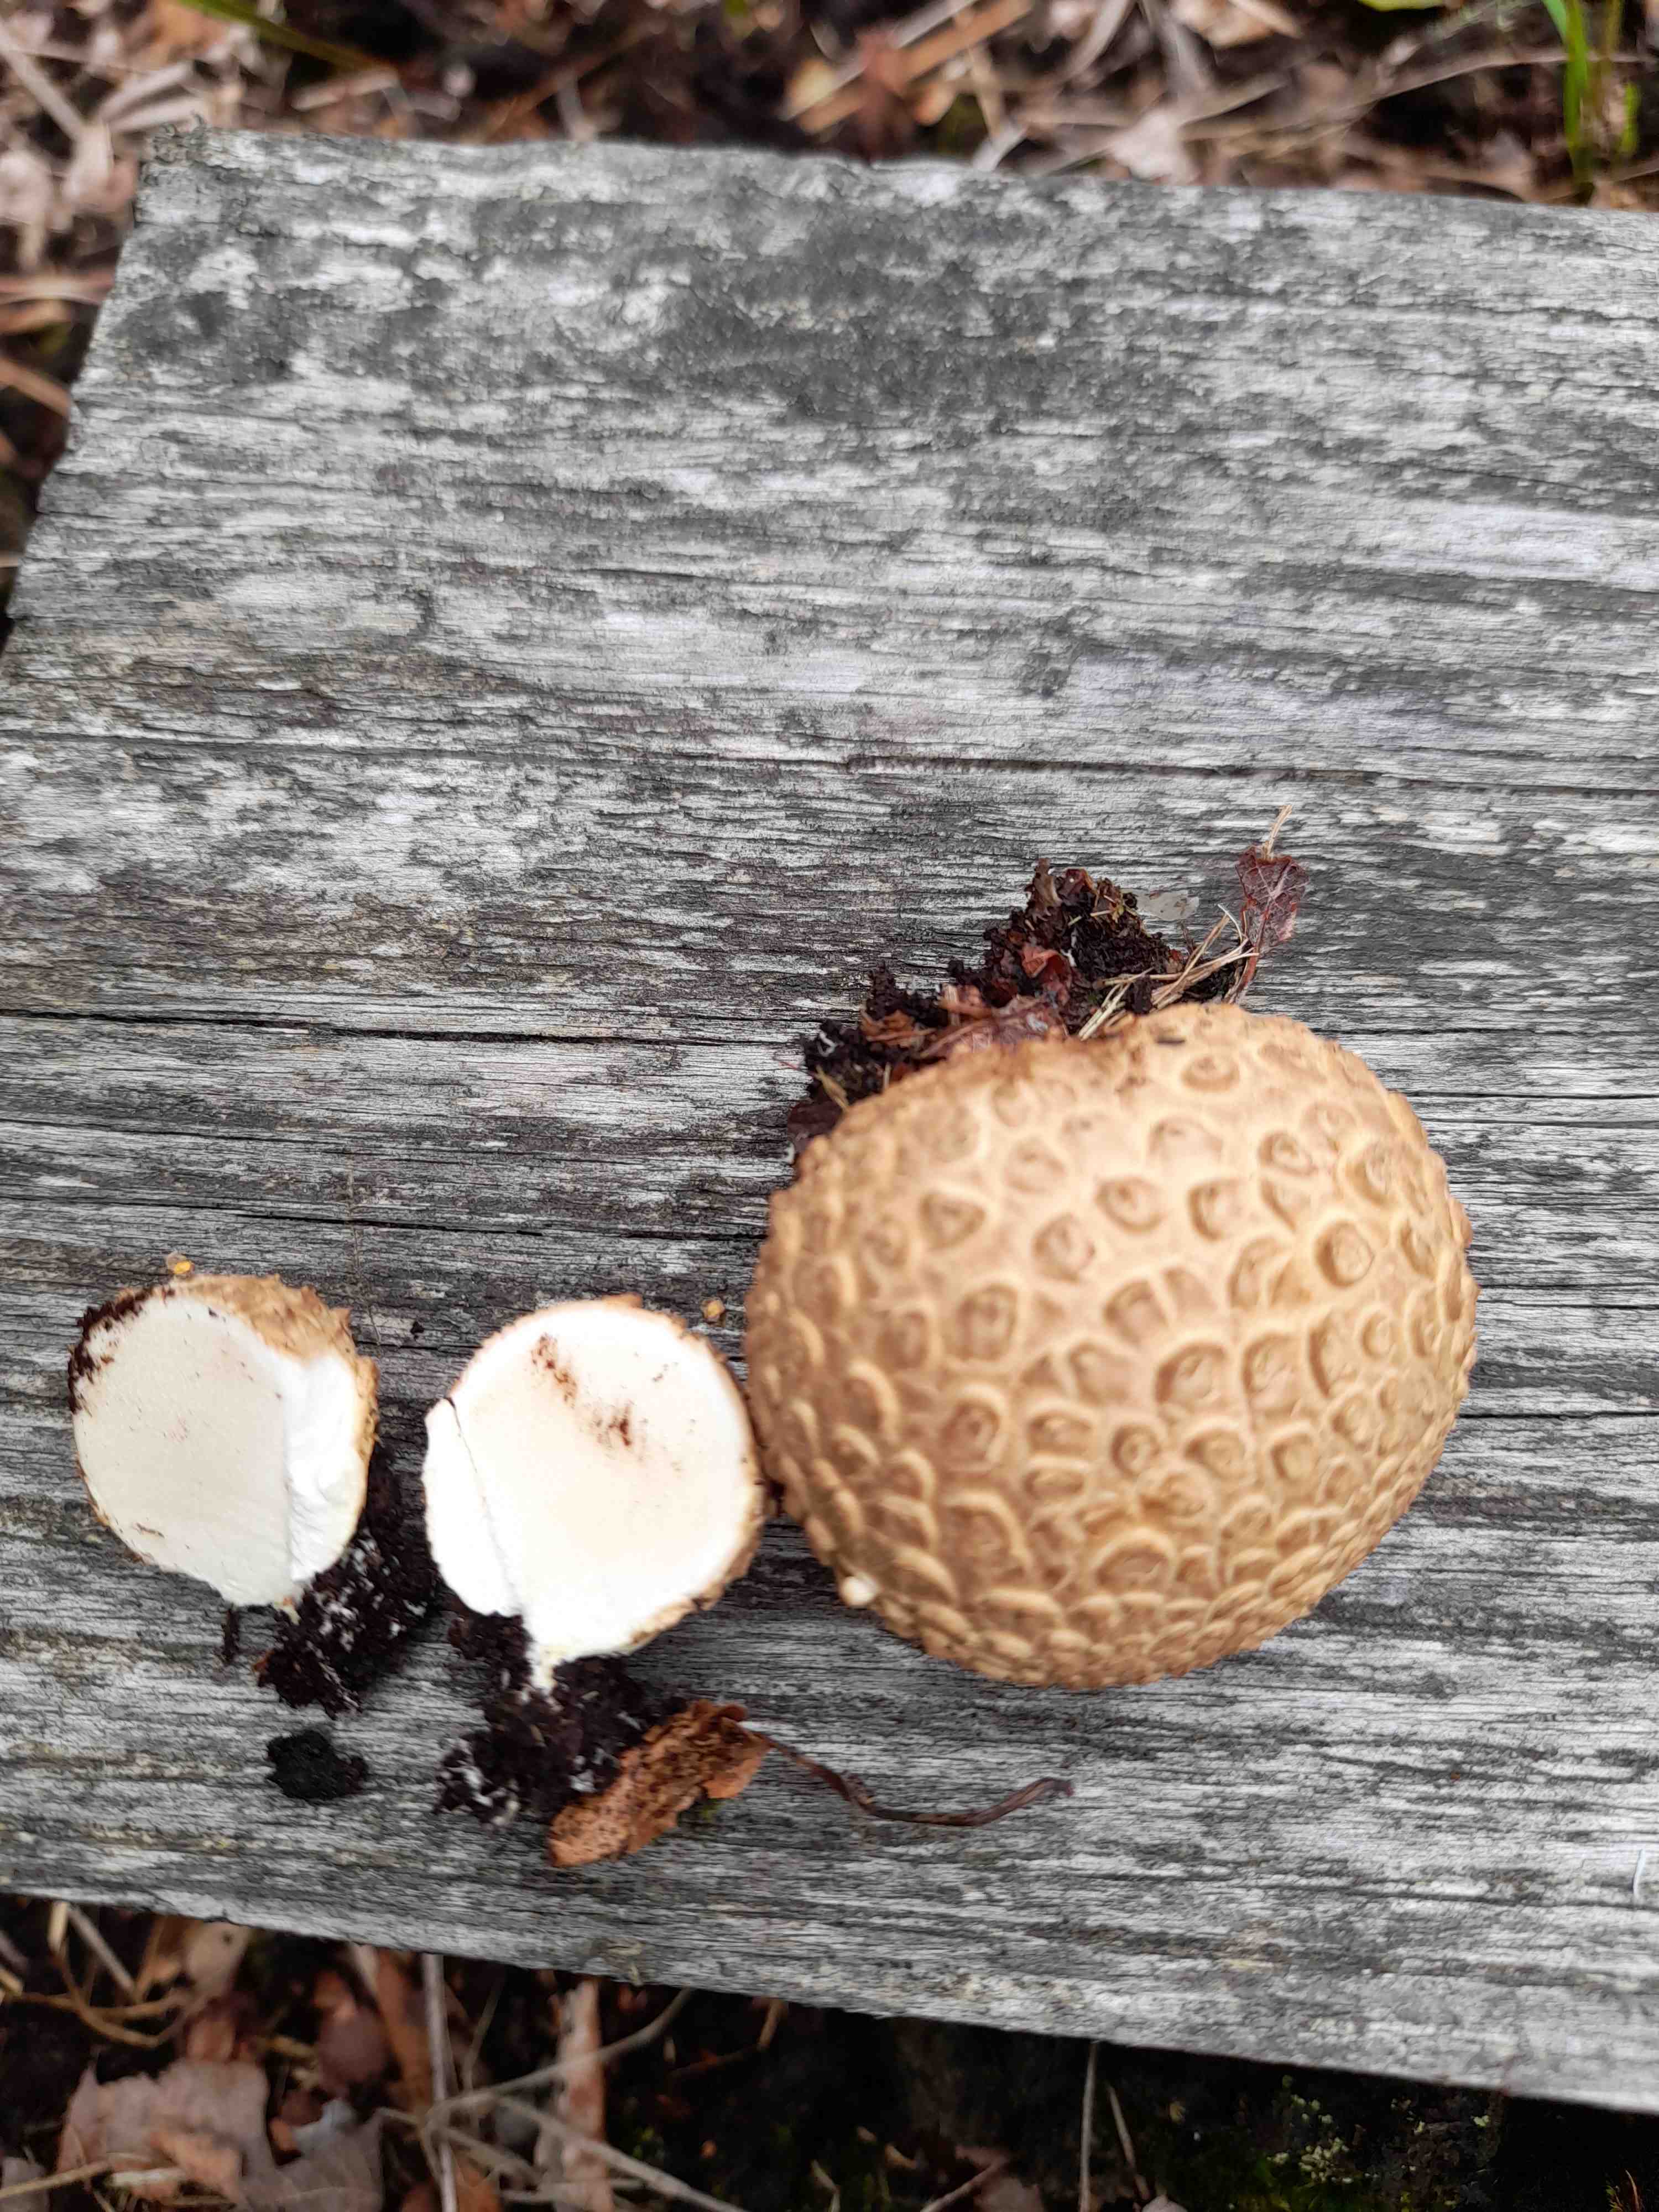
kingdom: Fungi
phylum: Basidiomycota
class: Agaricomycetes
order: Boletales
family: Sclerodermataceae
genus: Scleroderma
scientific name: Scleroderma citrinum
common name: almindelig bruskbold
